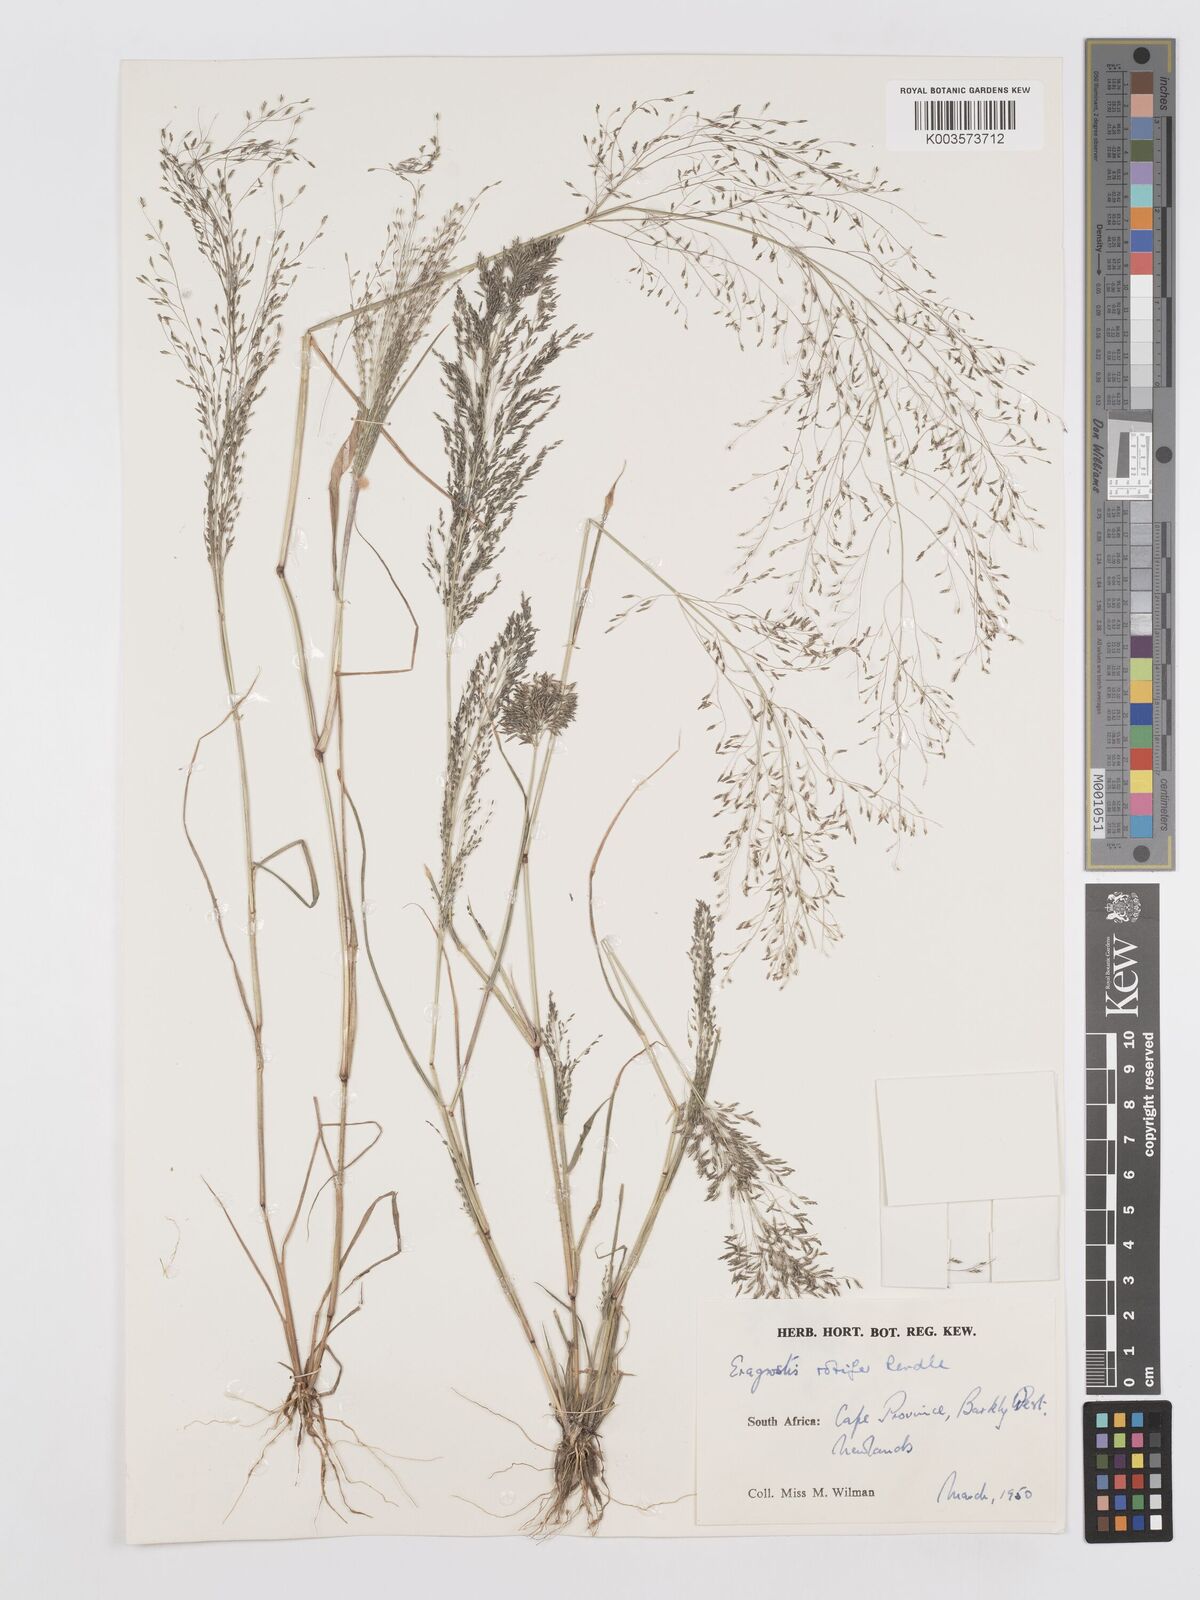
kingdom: Plantae
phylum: Tracheophyta
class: Liliopsida
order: Poales
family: Poaceae
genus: Eragrostis
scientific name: Eragrostis rotifer
